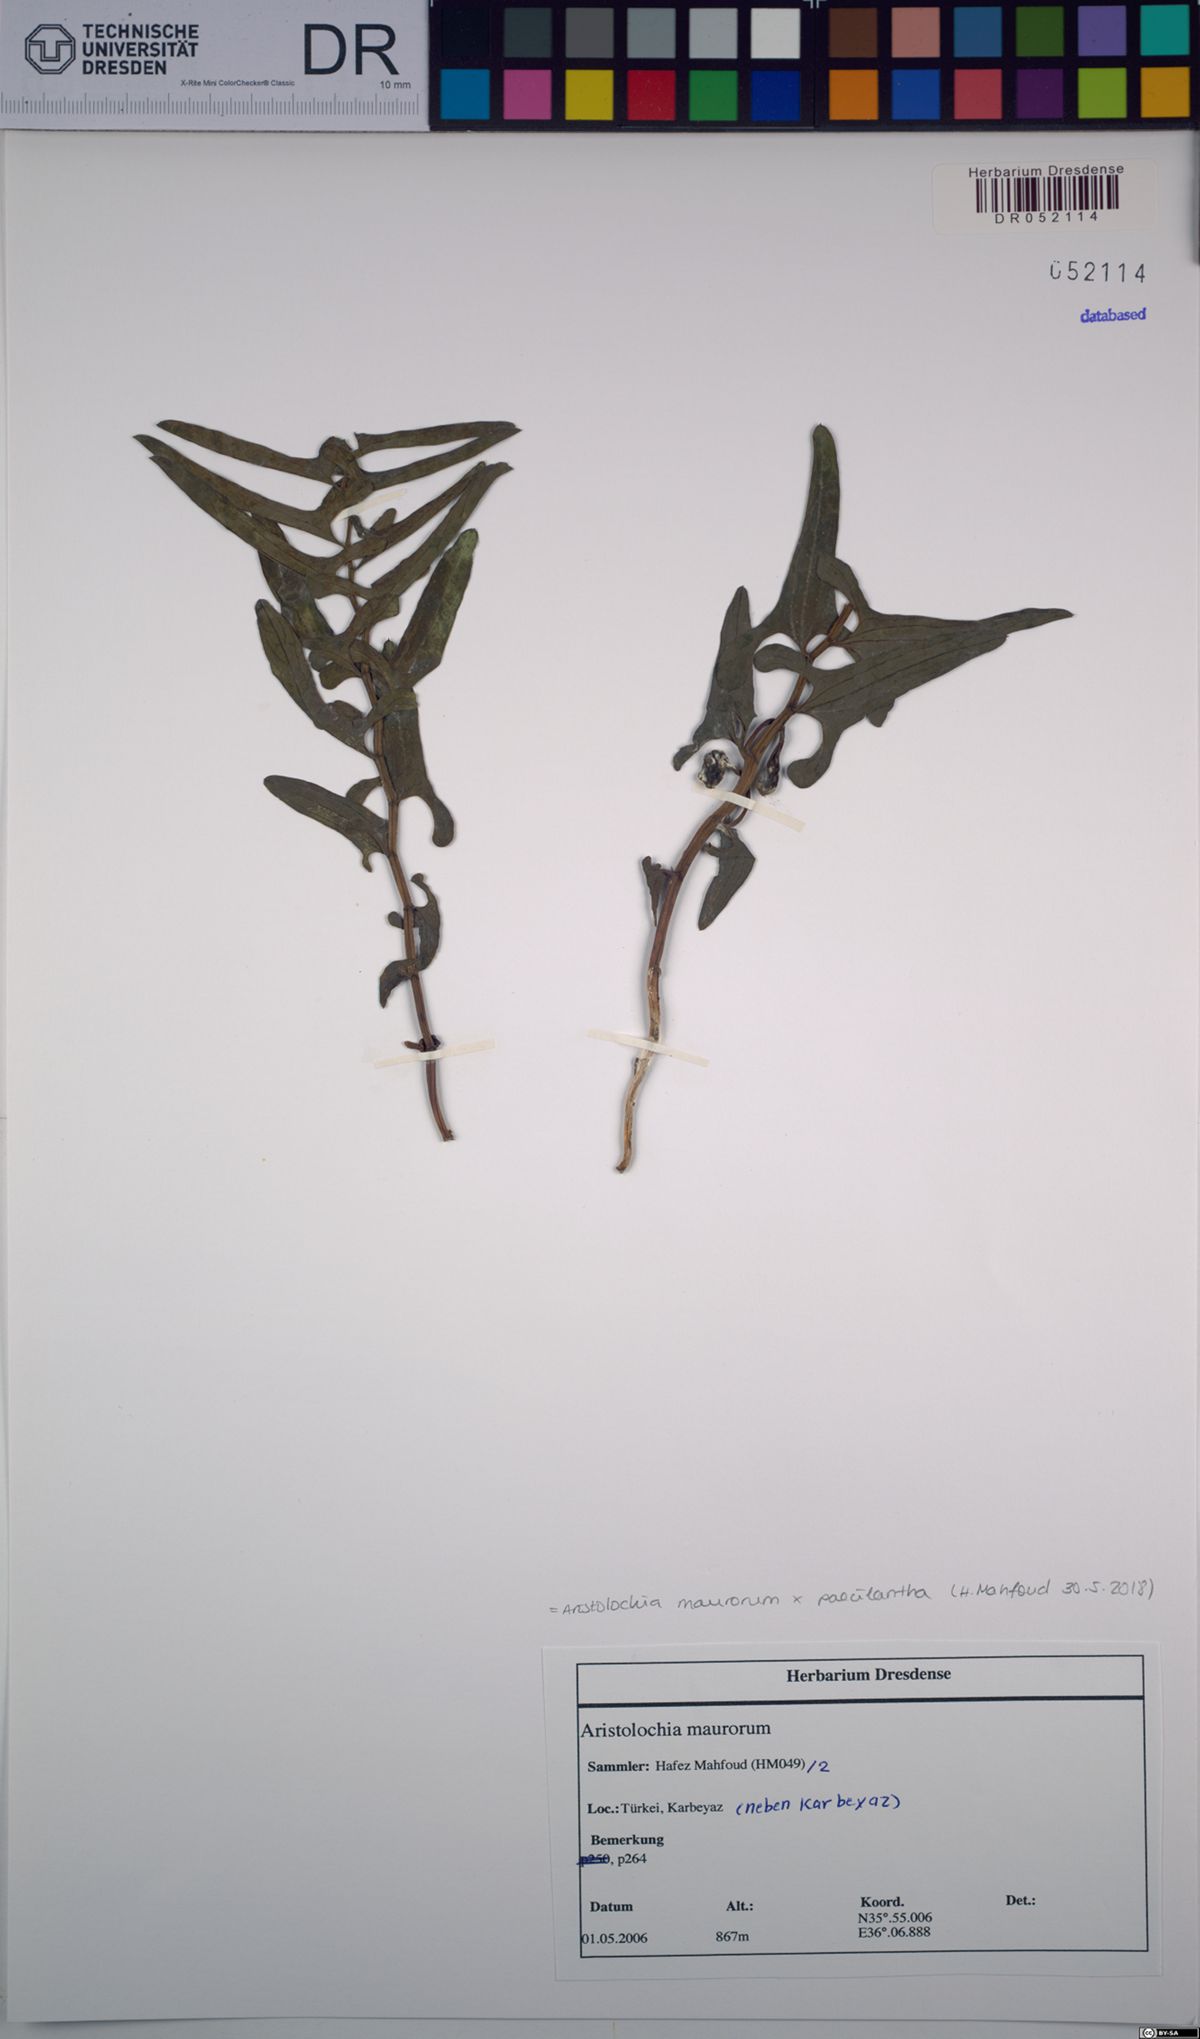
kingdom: Plantae
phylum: Tracheophyta
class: Magnoliopsida
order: Piperales
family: Aristolochiaceae
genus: Aristolochia
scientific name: Aristolochia maurorum
